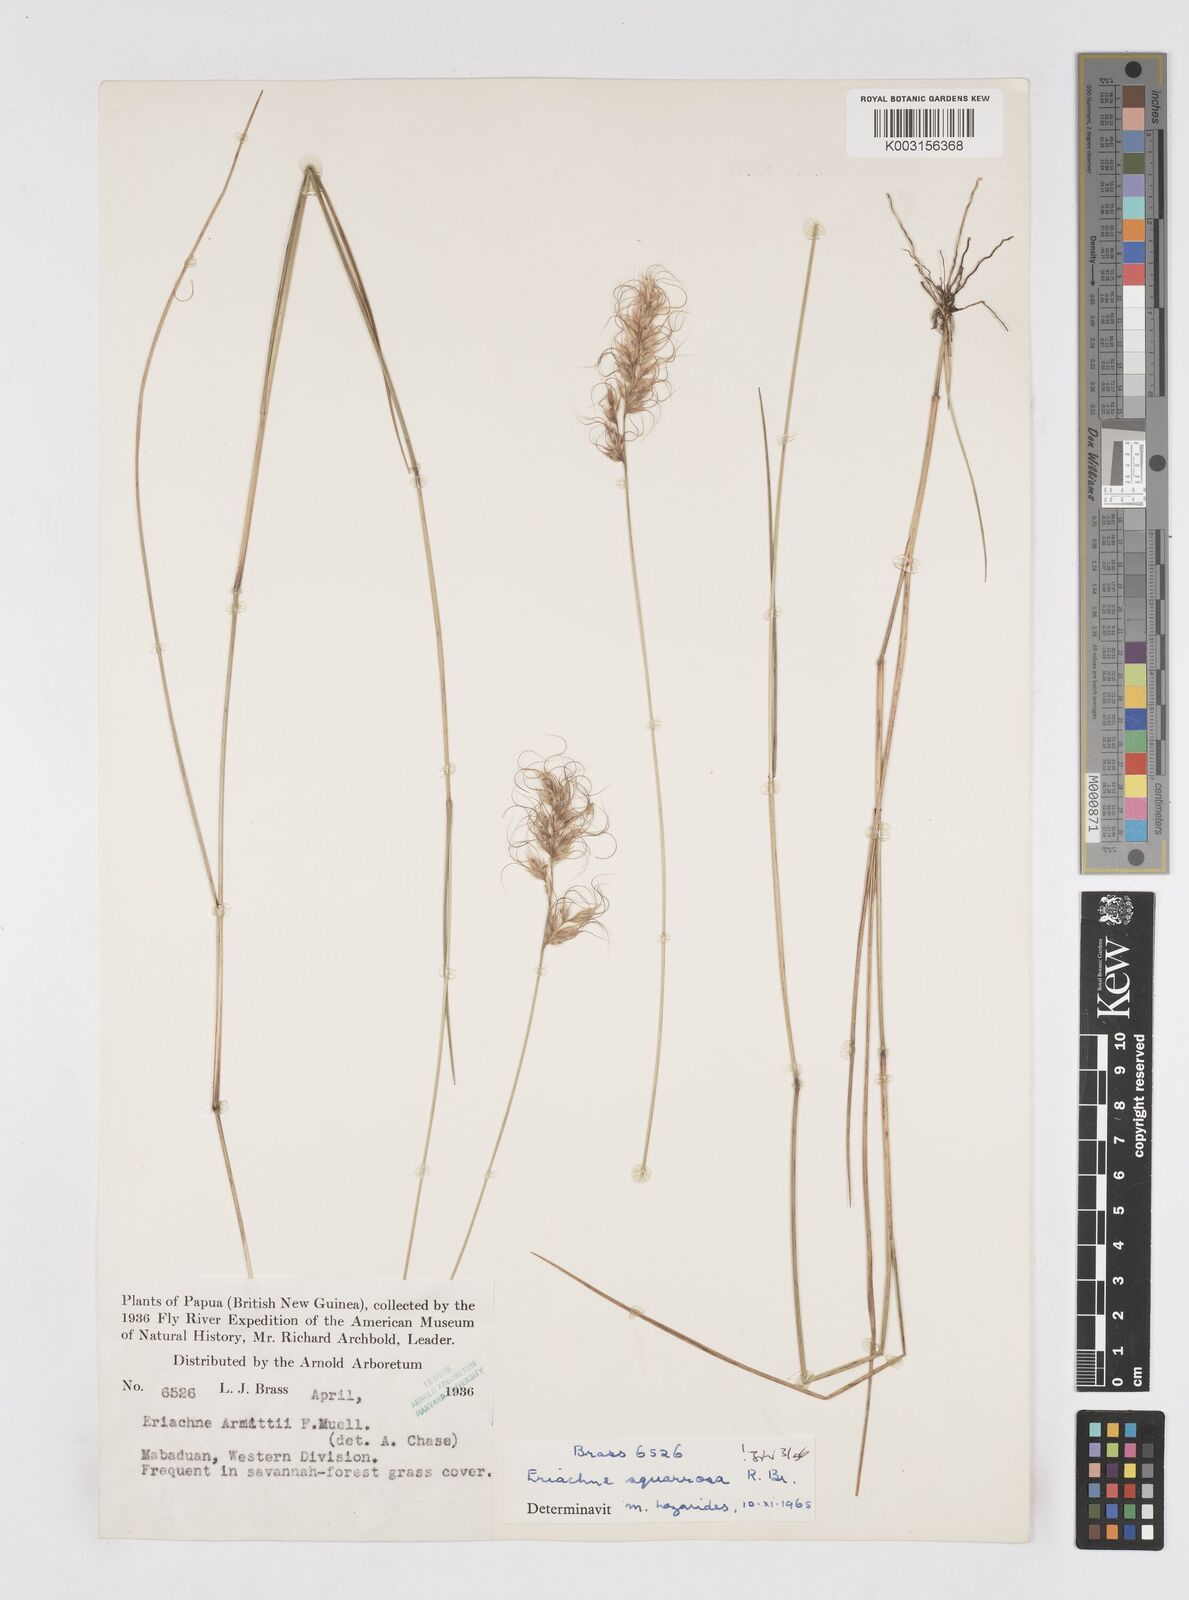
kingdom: Plantae
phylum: Tracheophyta
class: Liliopsida
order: Poales
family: Poaceae
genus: Eriachne
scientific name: Eriachne squarrosa
